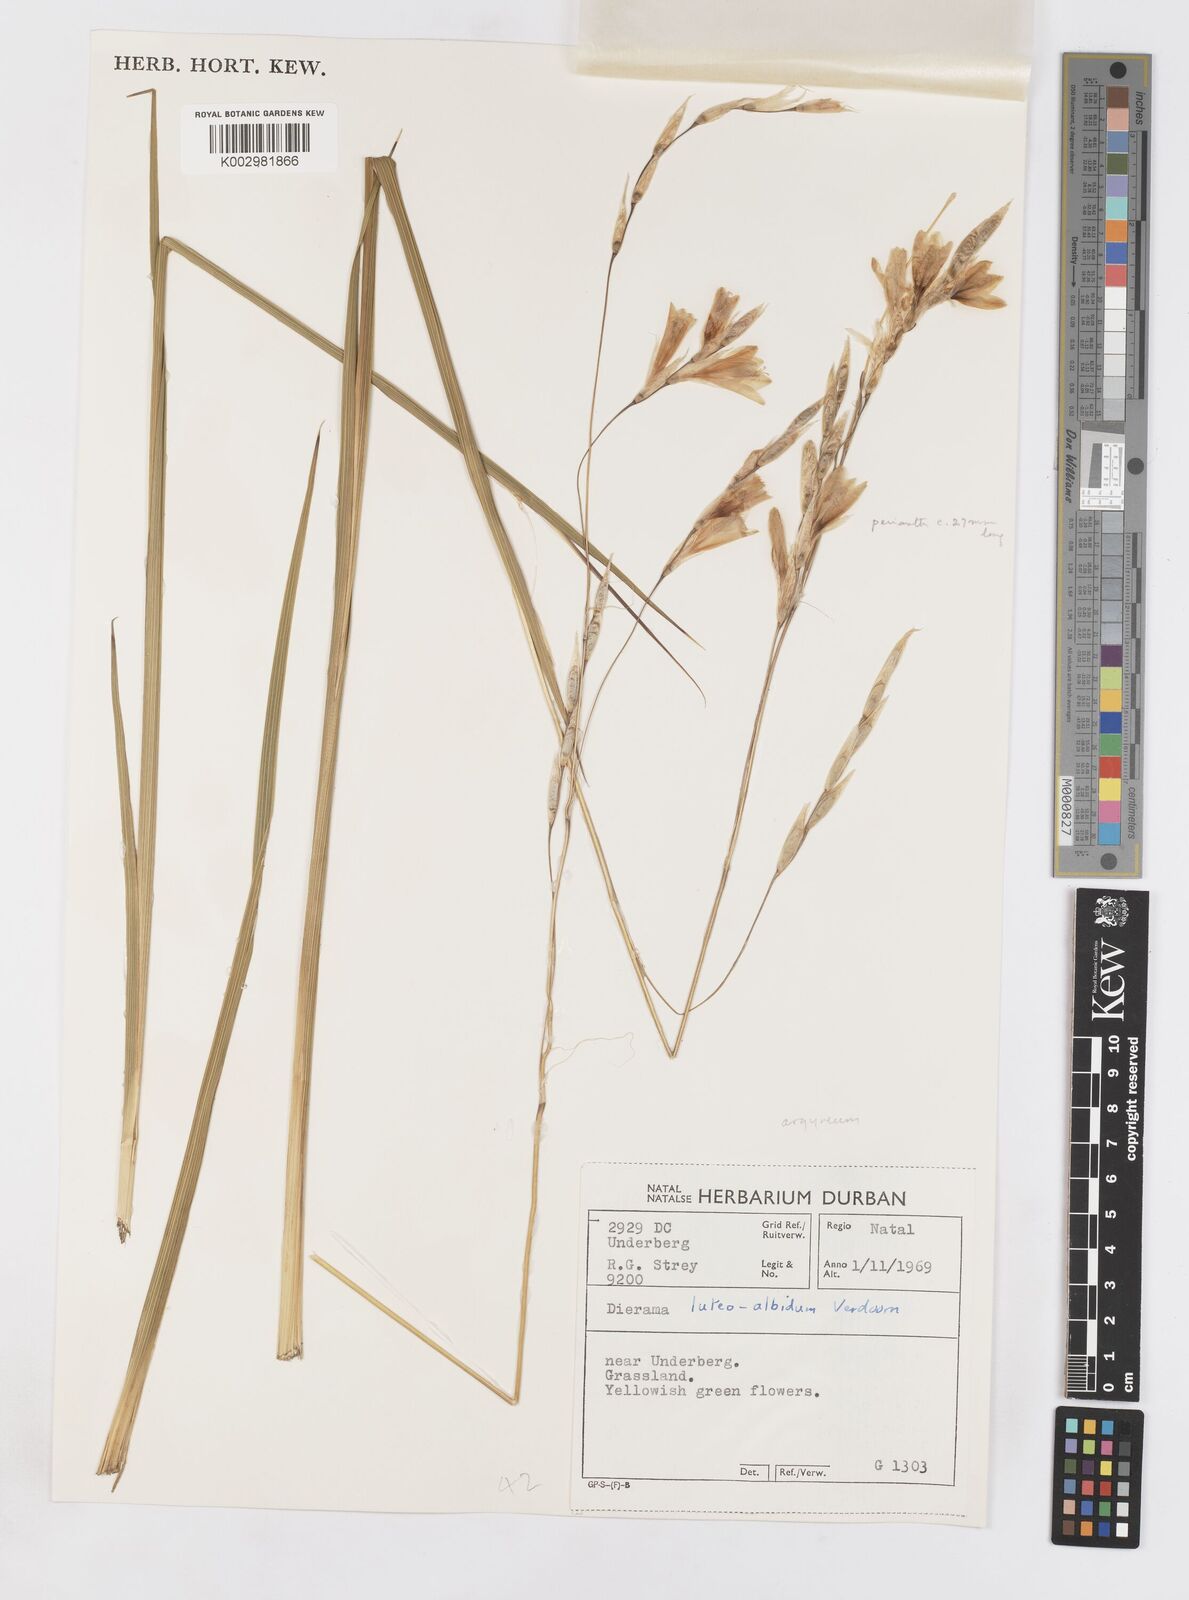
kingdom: Plantae
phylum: Tracheophyta
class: Liliopsida
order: Asparagales
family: Iridaceae
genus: Dierama
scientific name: Dierama argyreum
